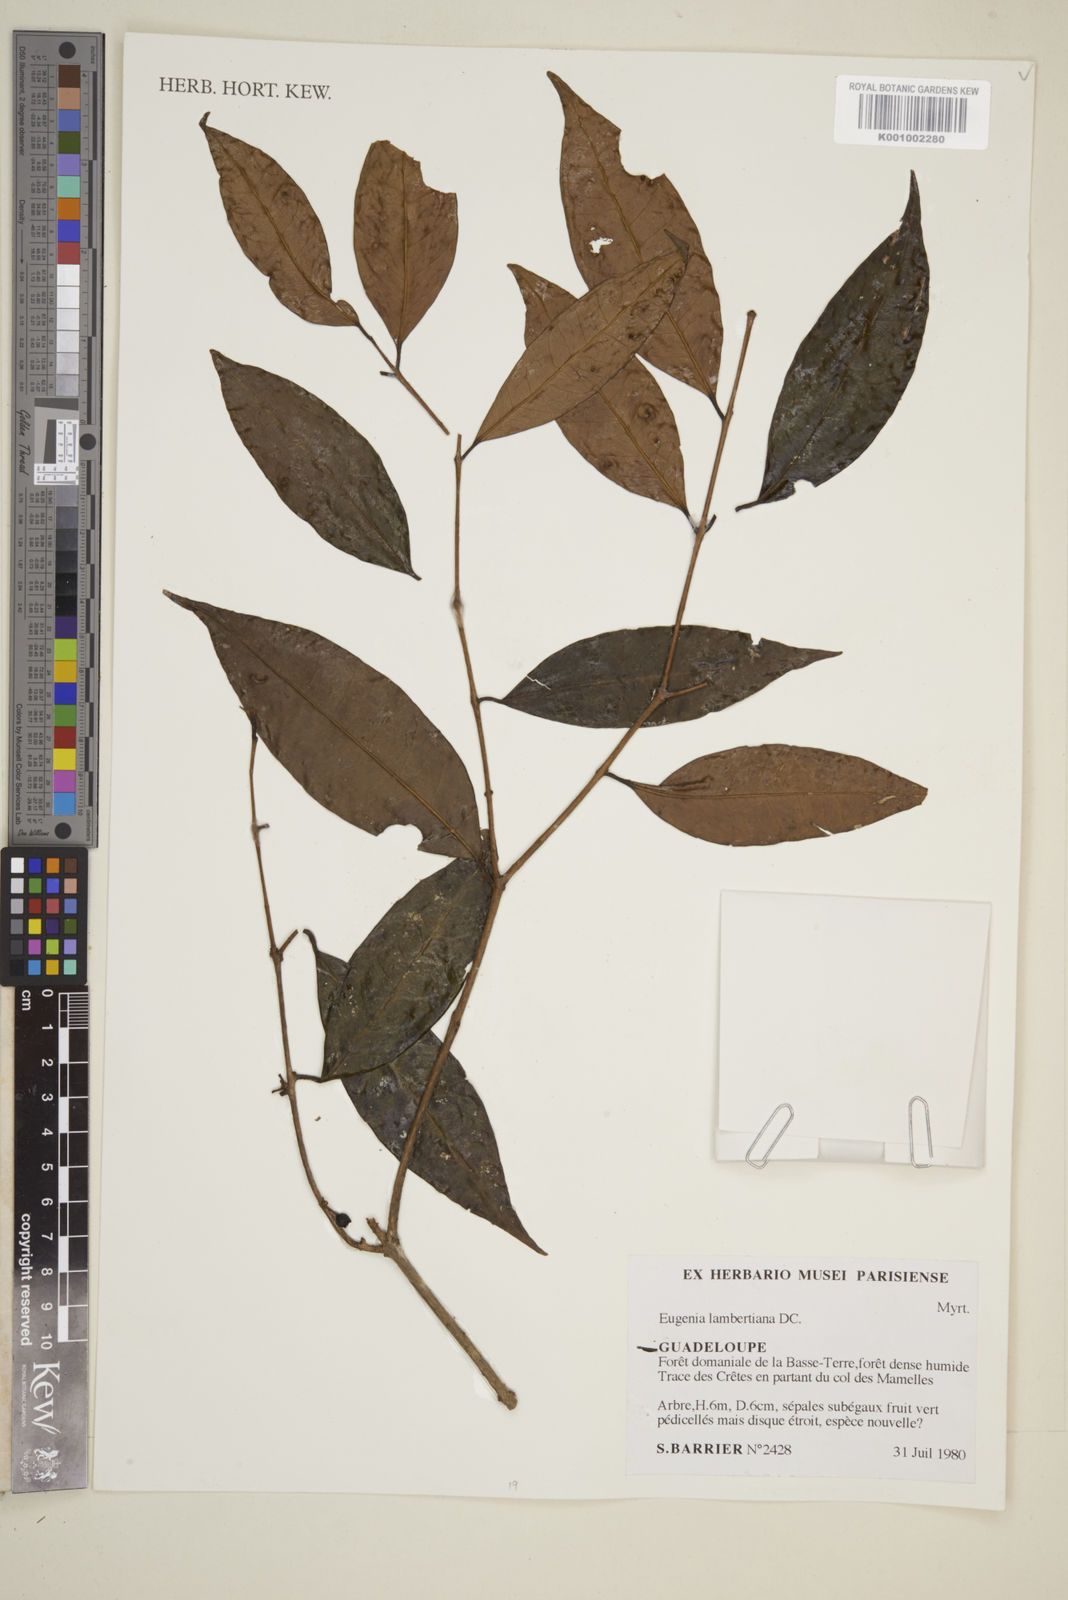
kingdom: Plantae
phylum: Tracheophyta
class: Magnoliopsida
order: Myrtales
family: Myrtaceae
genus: Eugenia
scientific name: Eugenia lambertiana
